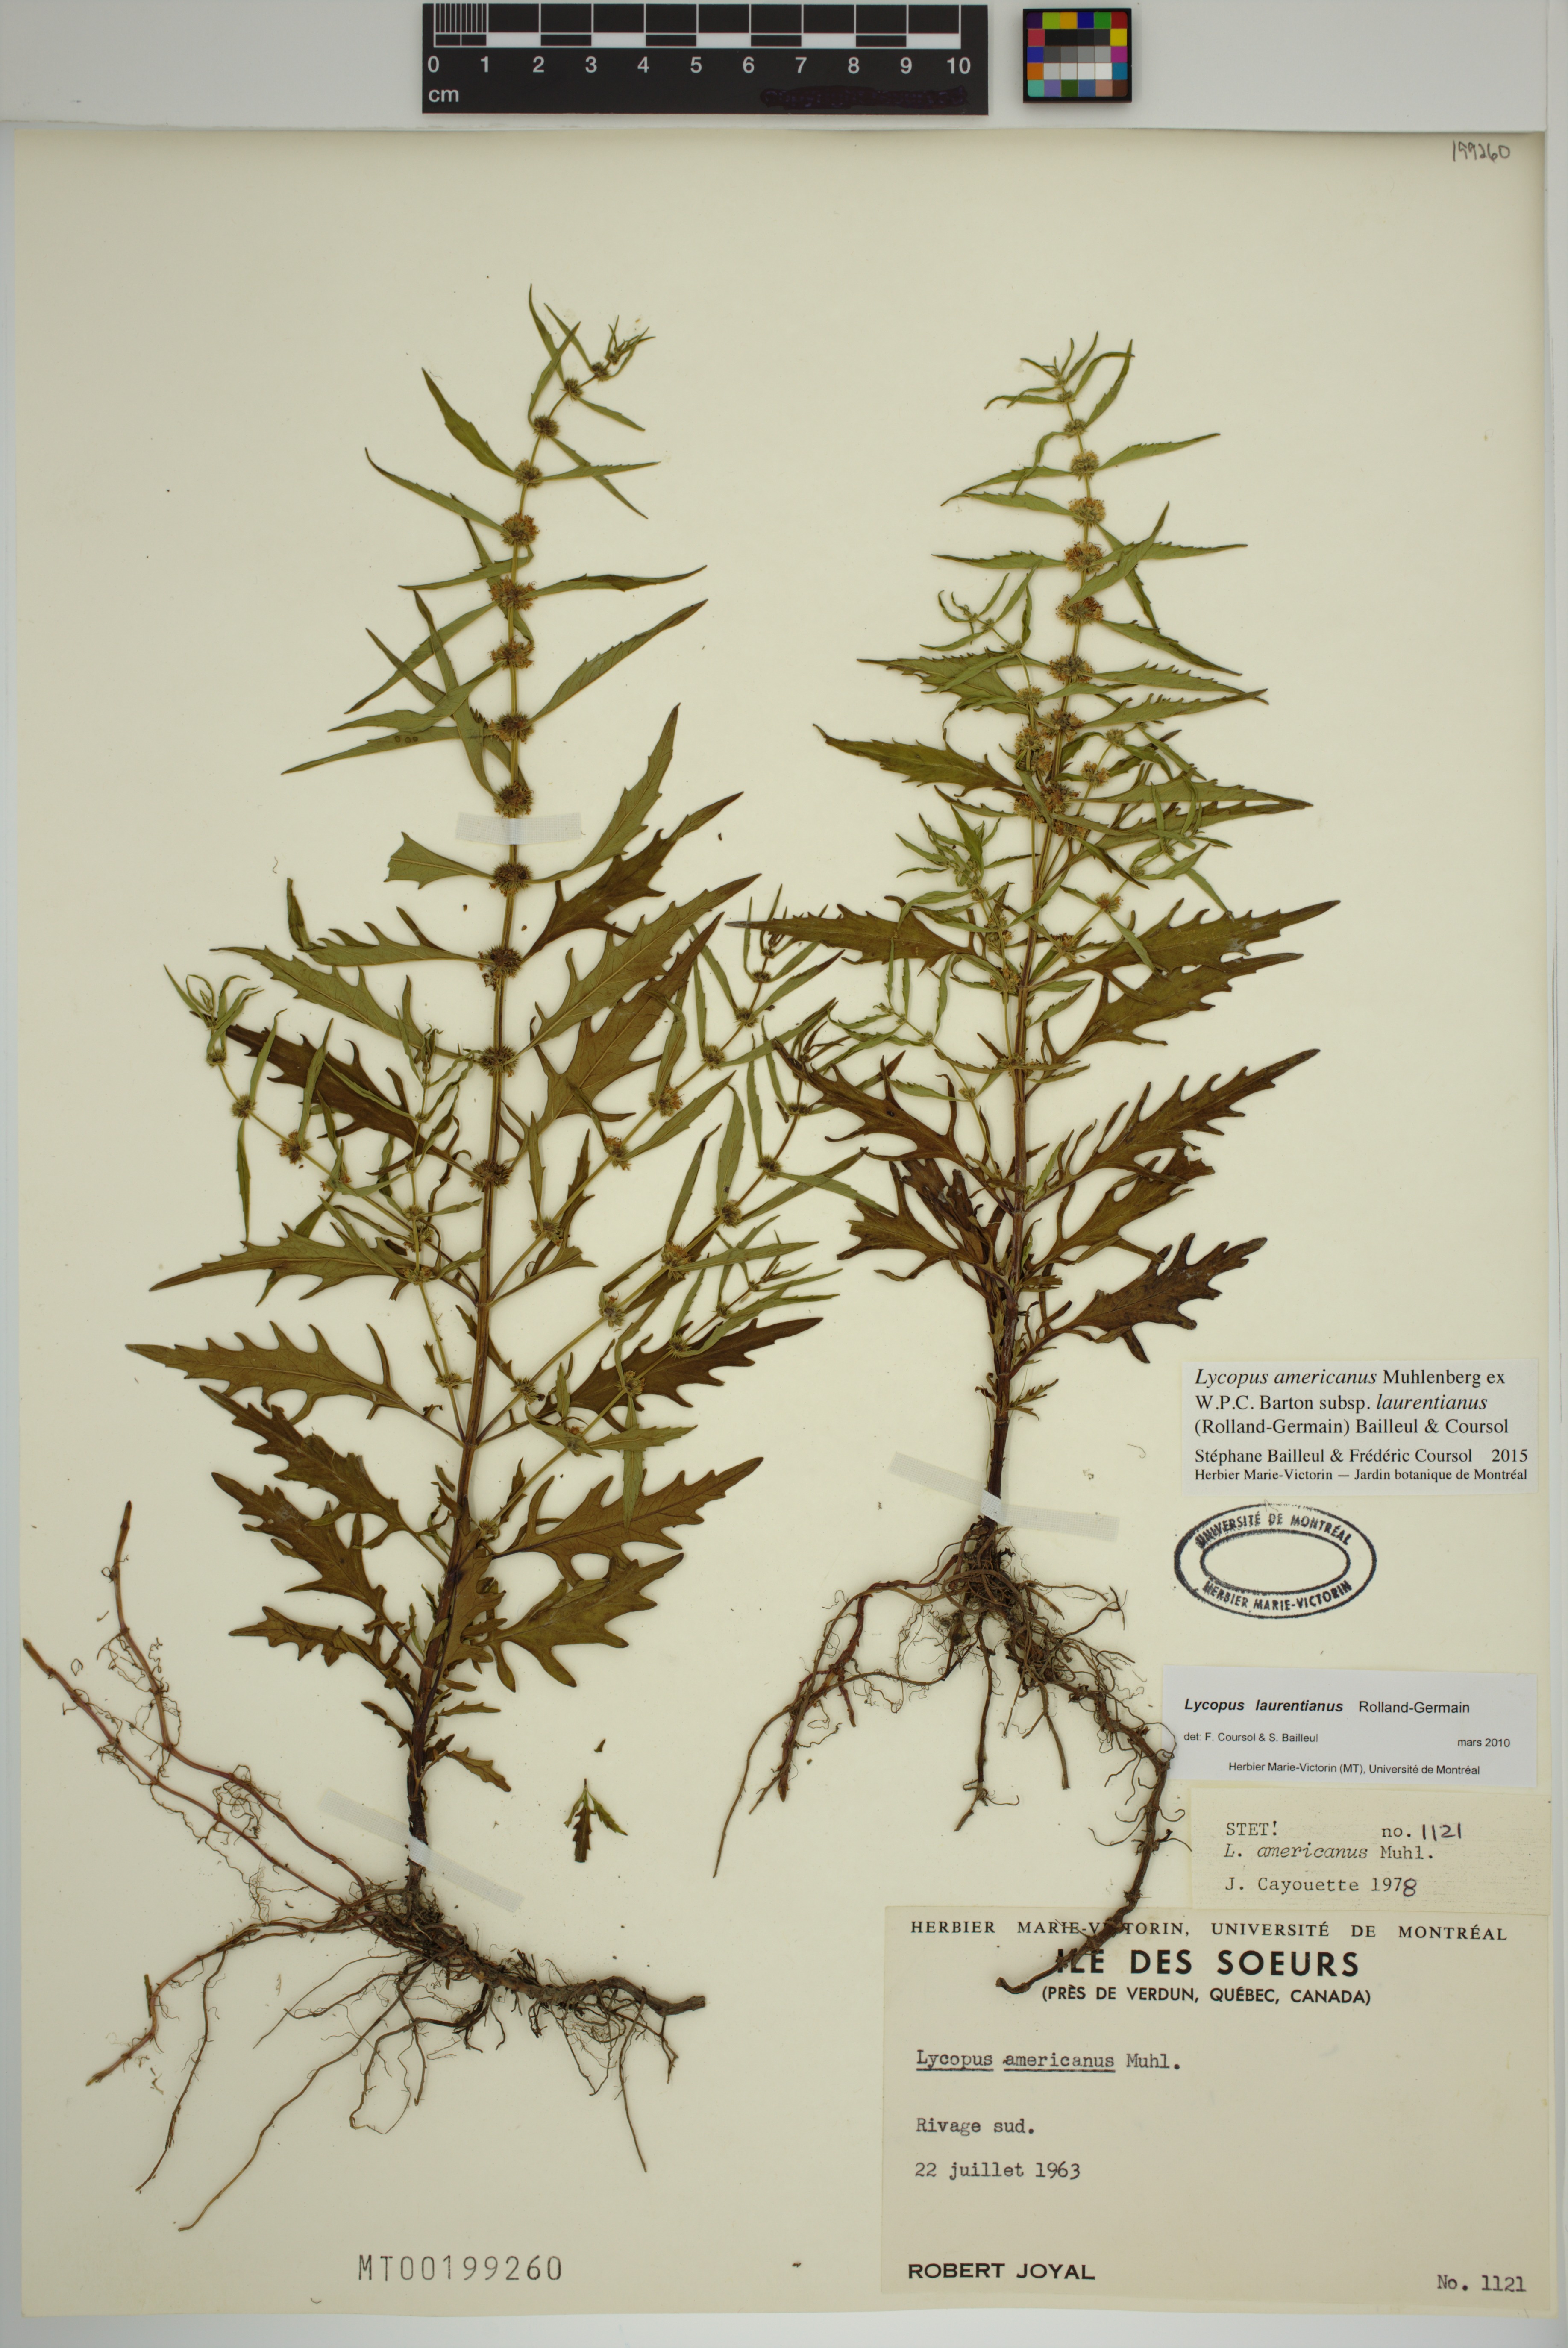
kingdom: Plantae
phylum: Tracheophyta
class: Magnoliopsida
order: Lamiales
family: Lamiaceae
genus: Lycopus
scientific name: Lycopus americanus
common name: American bugleweed
